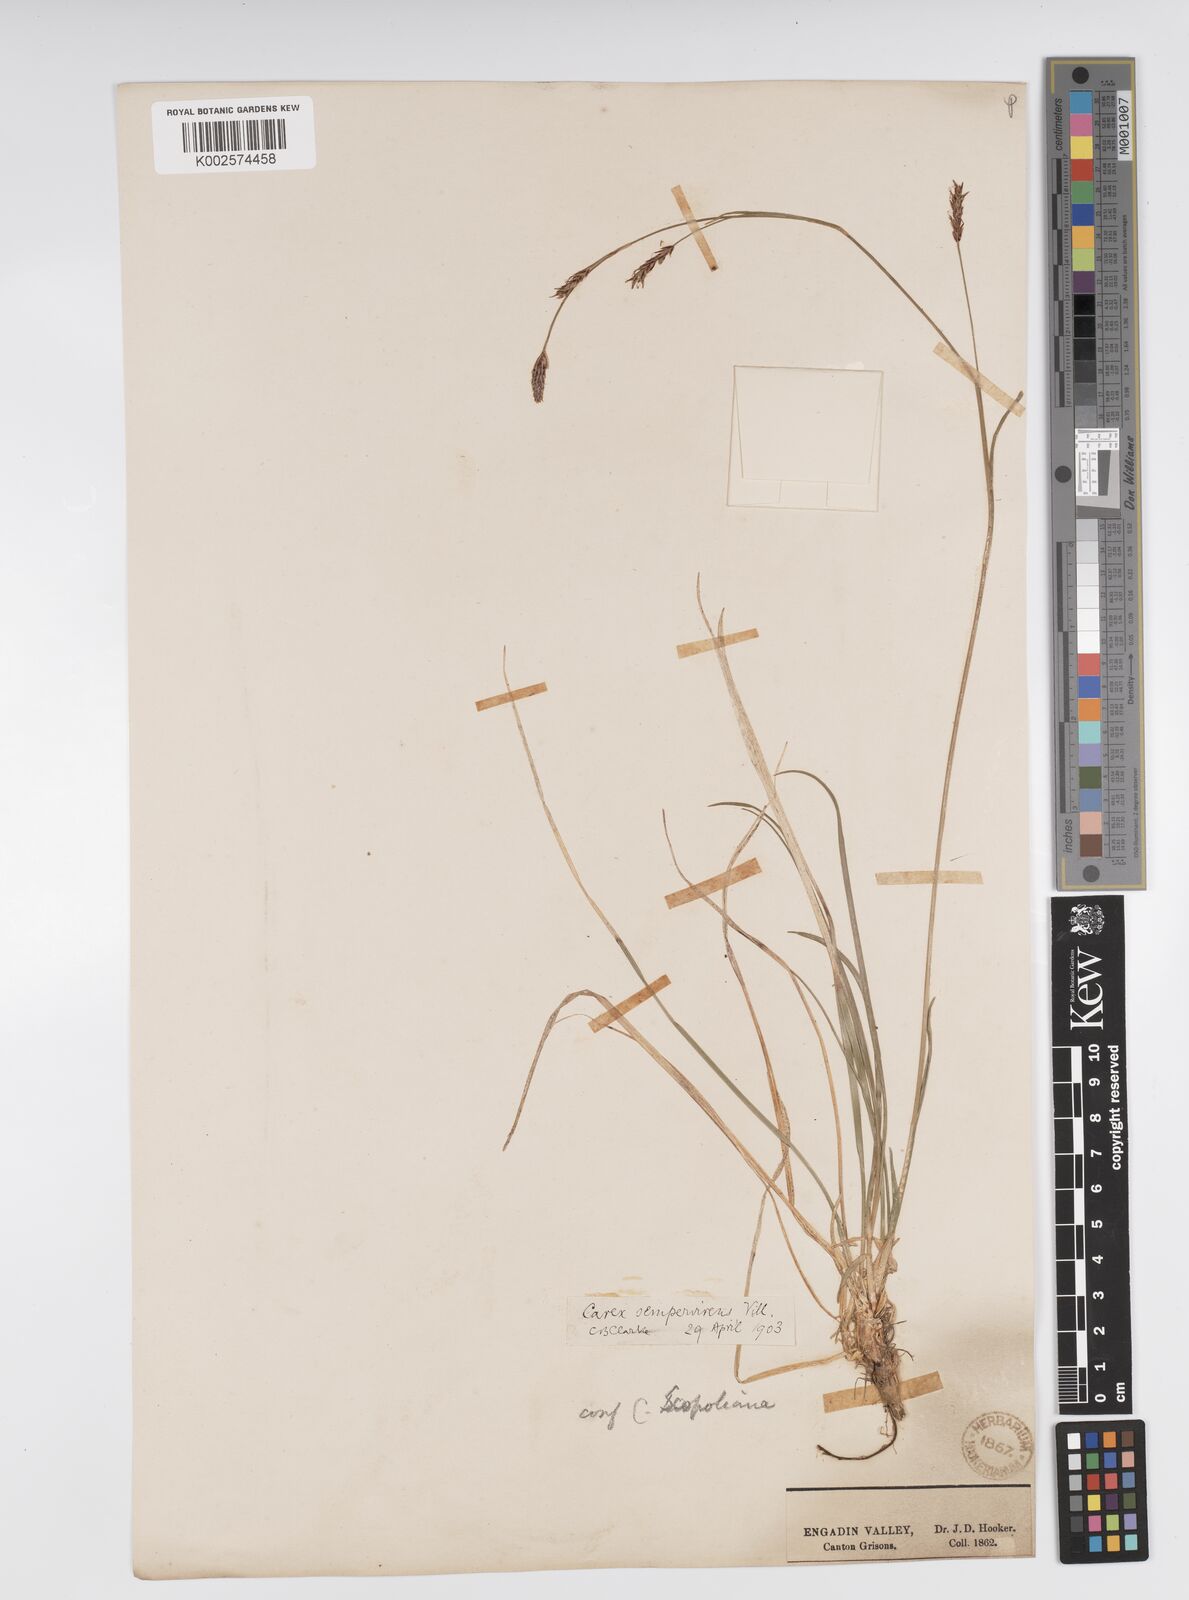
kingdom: Plantae
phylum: Tracheophyta
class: Liliopsida
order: Poales
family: Cyperaceae
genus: Carex
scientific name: Carex sempervirens
